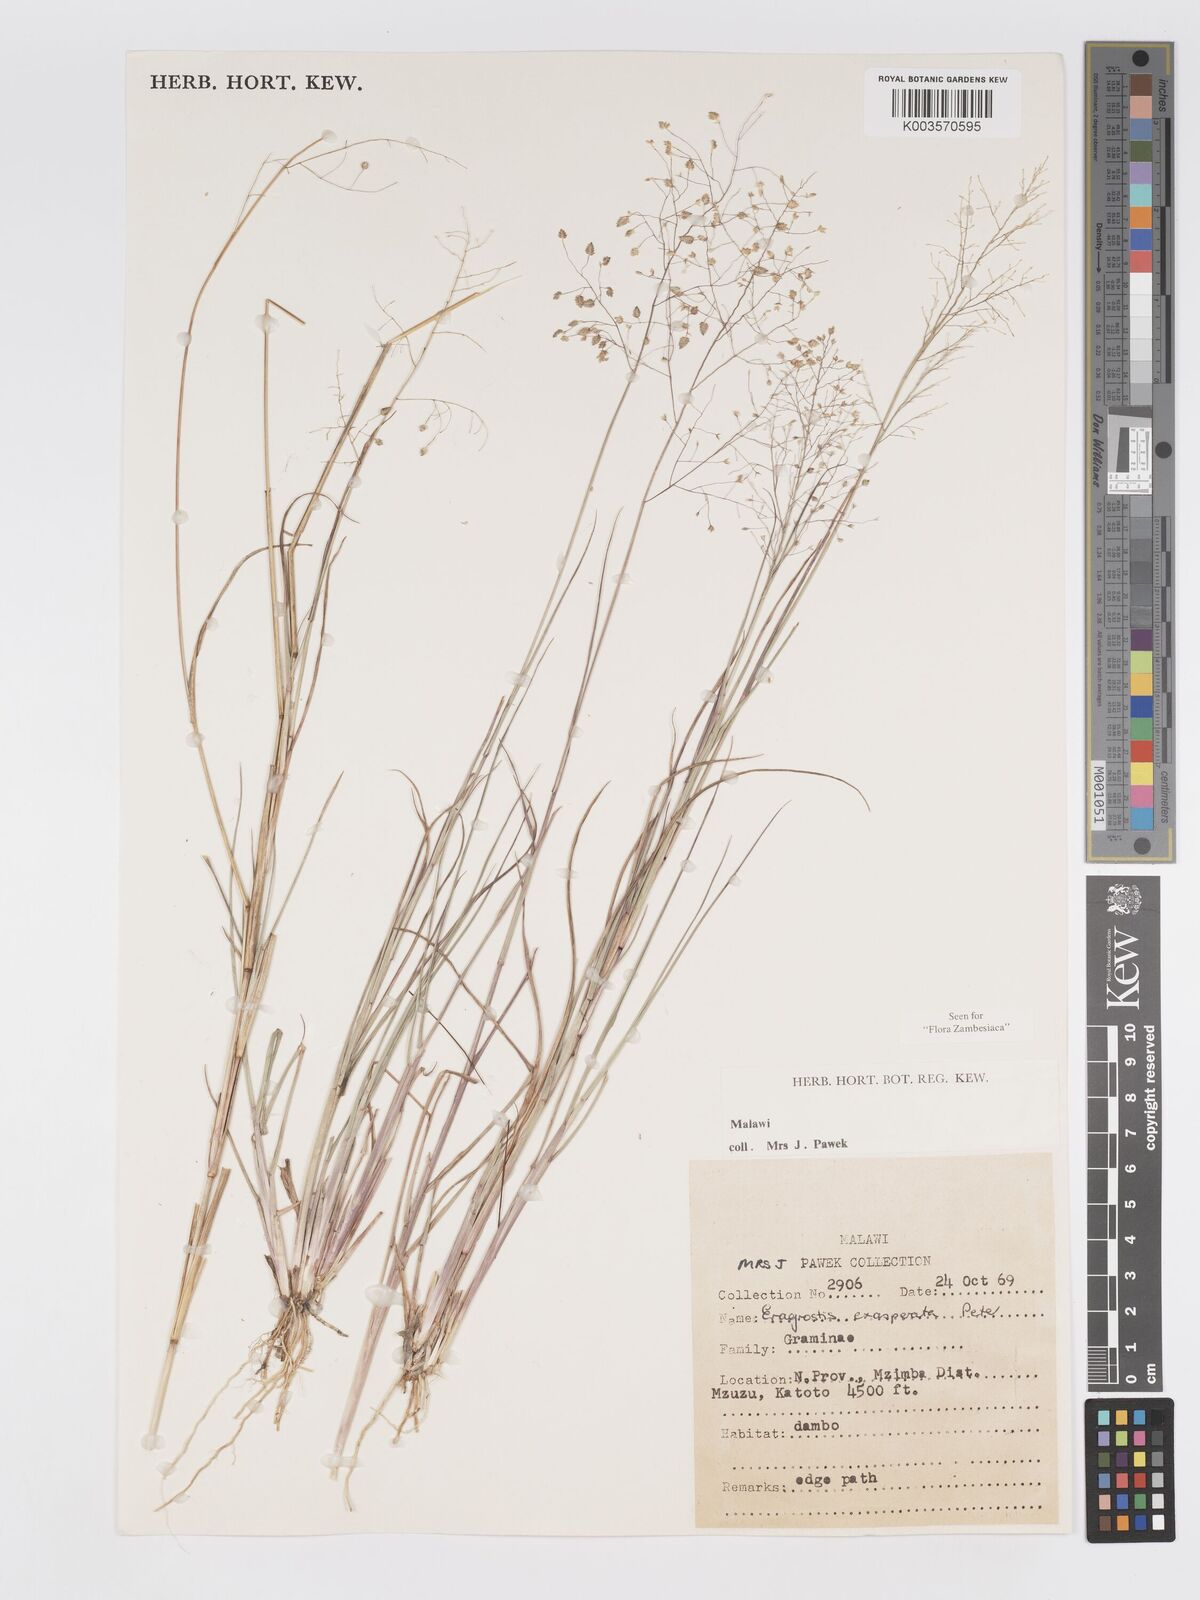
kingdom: Plantae
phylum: Tracheophyta
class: Liliopsida
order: Poales
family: Poaceae
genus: Eragrostis
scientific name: Eragrostis exasperata
